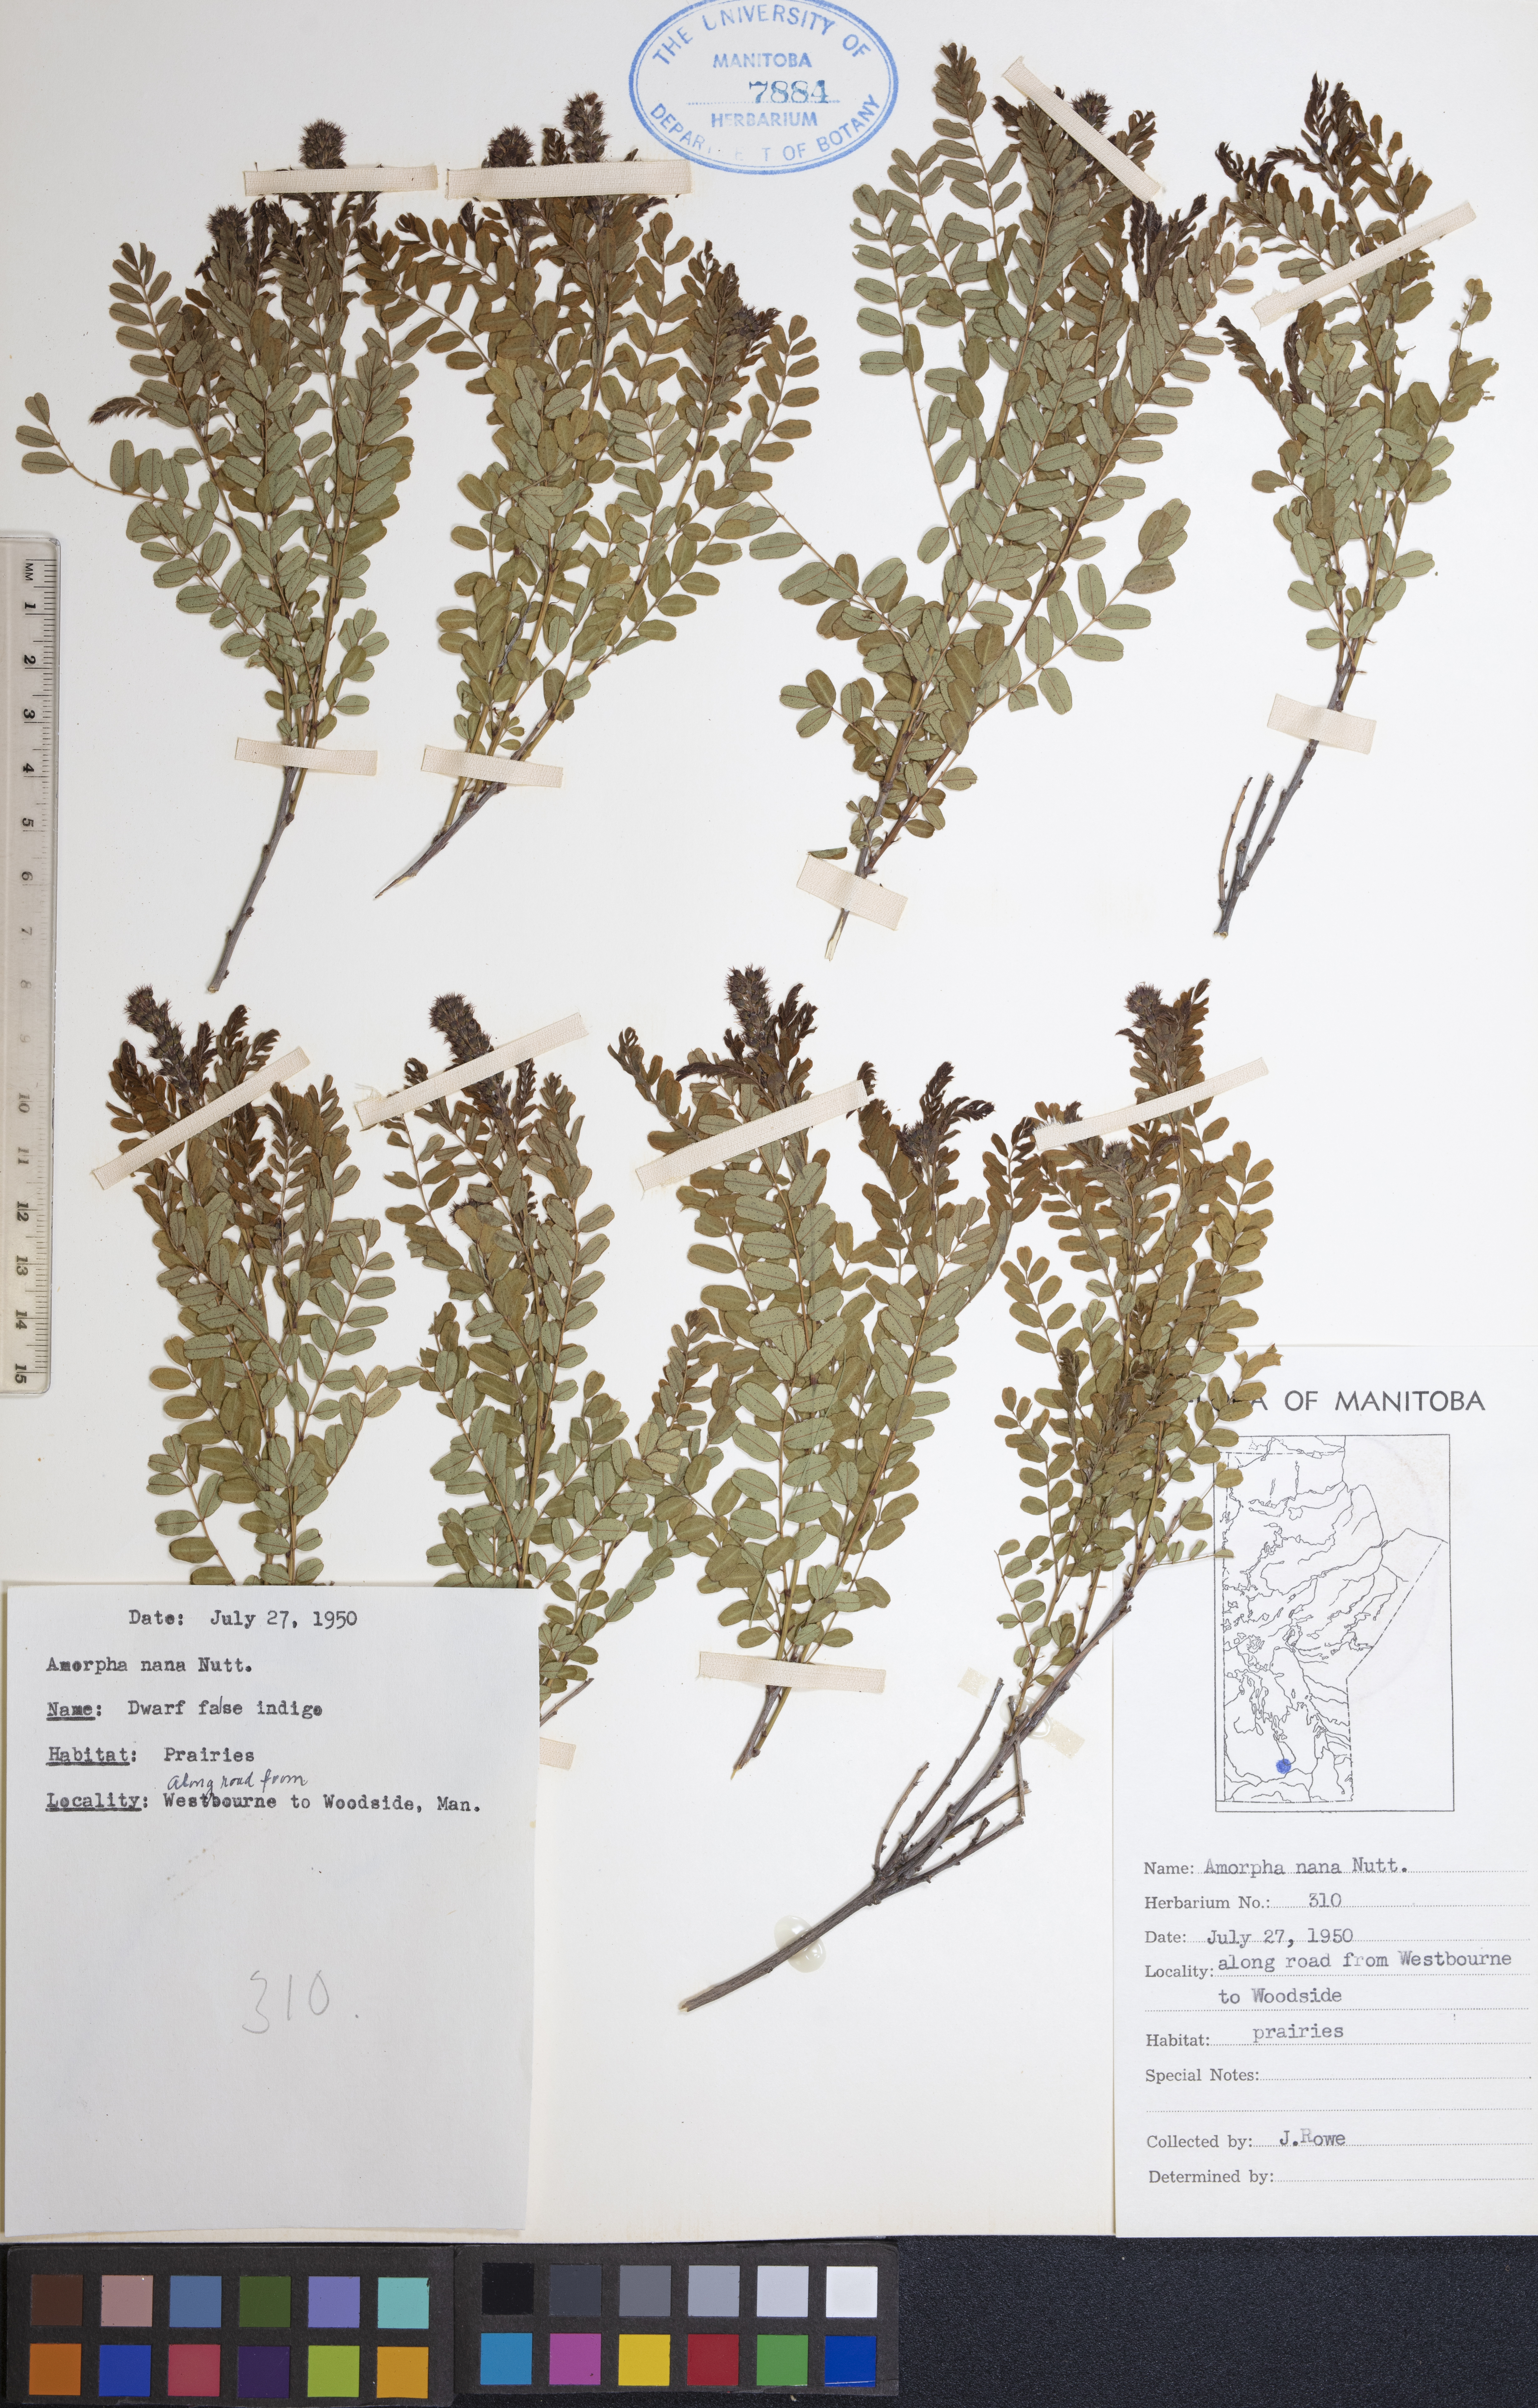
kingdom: Plantae
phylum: Tracheophyta
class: Magnoliopsida
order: Fabales
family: Fabaceae
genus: Amorpha
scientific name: Amorpha nana
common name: Fragrant false indigo
